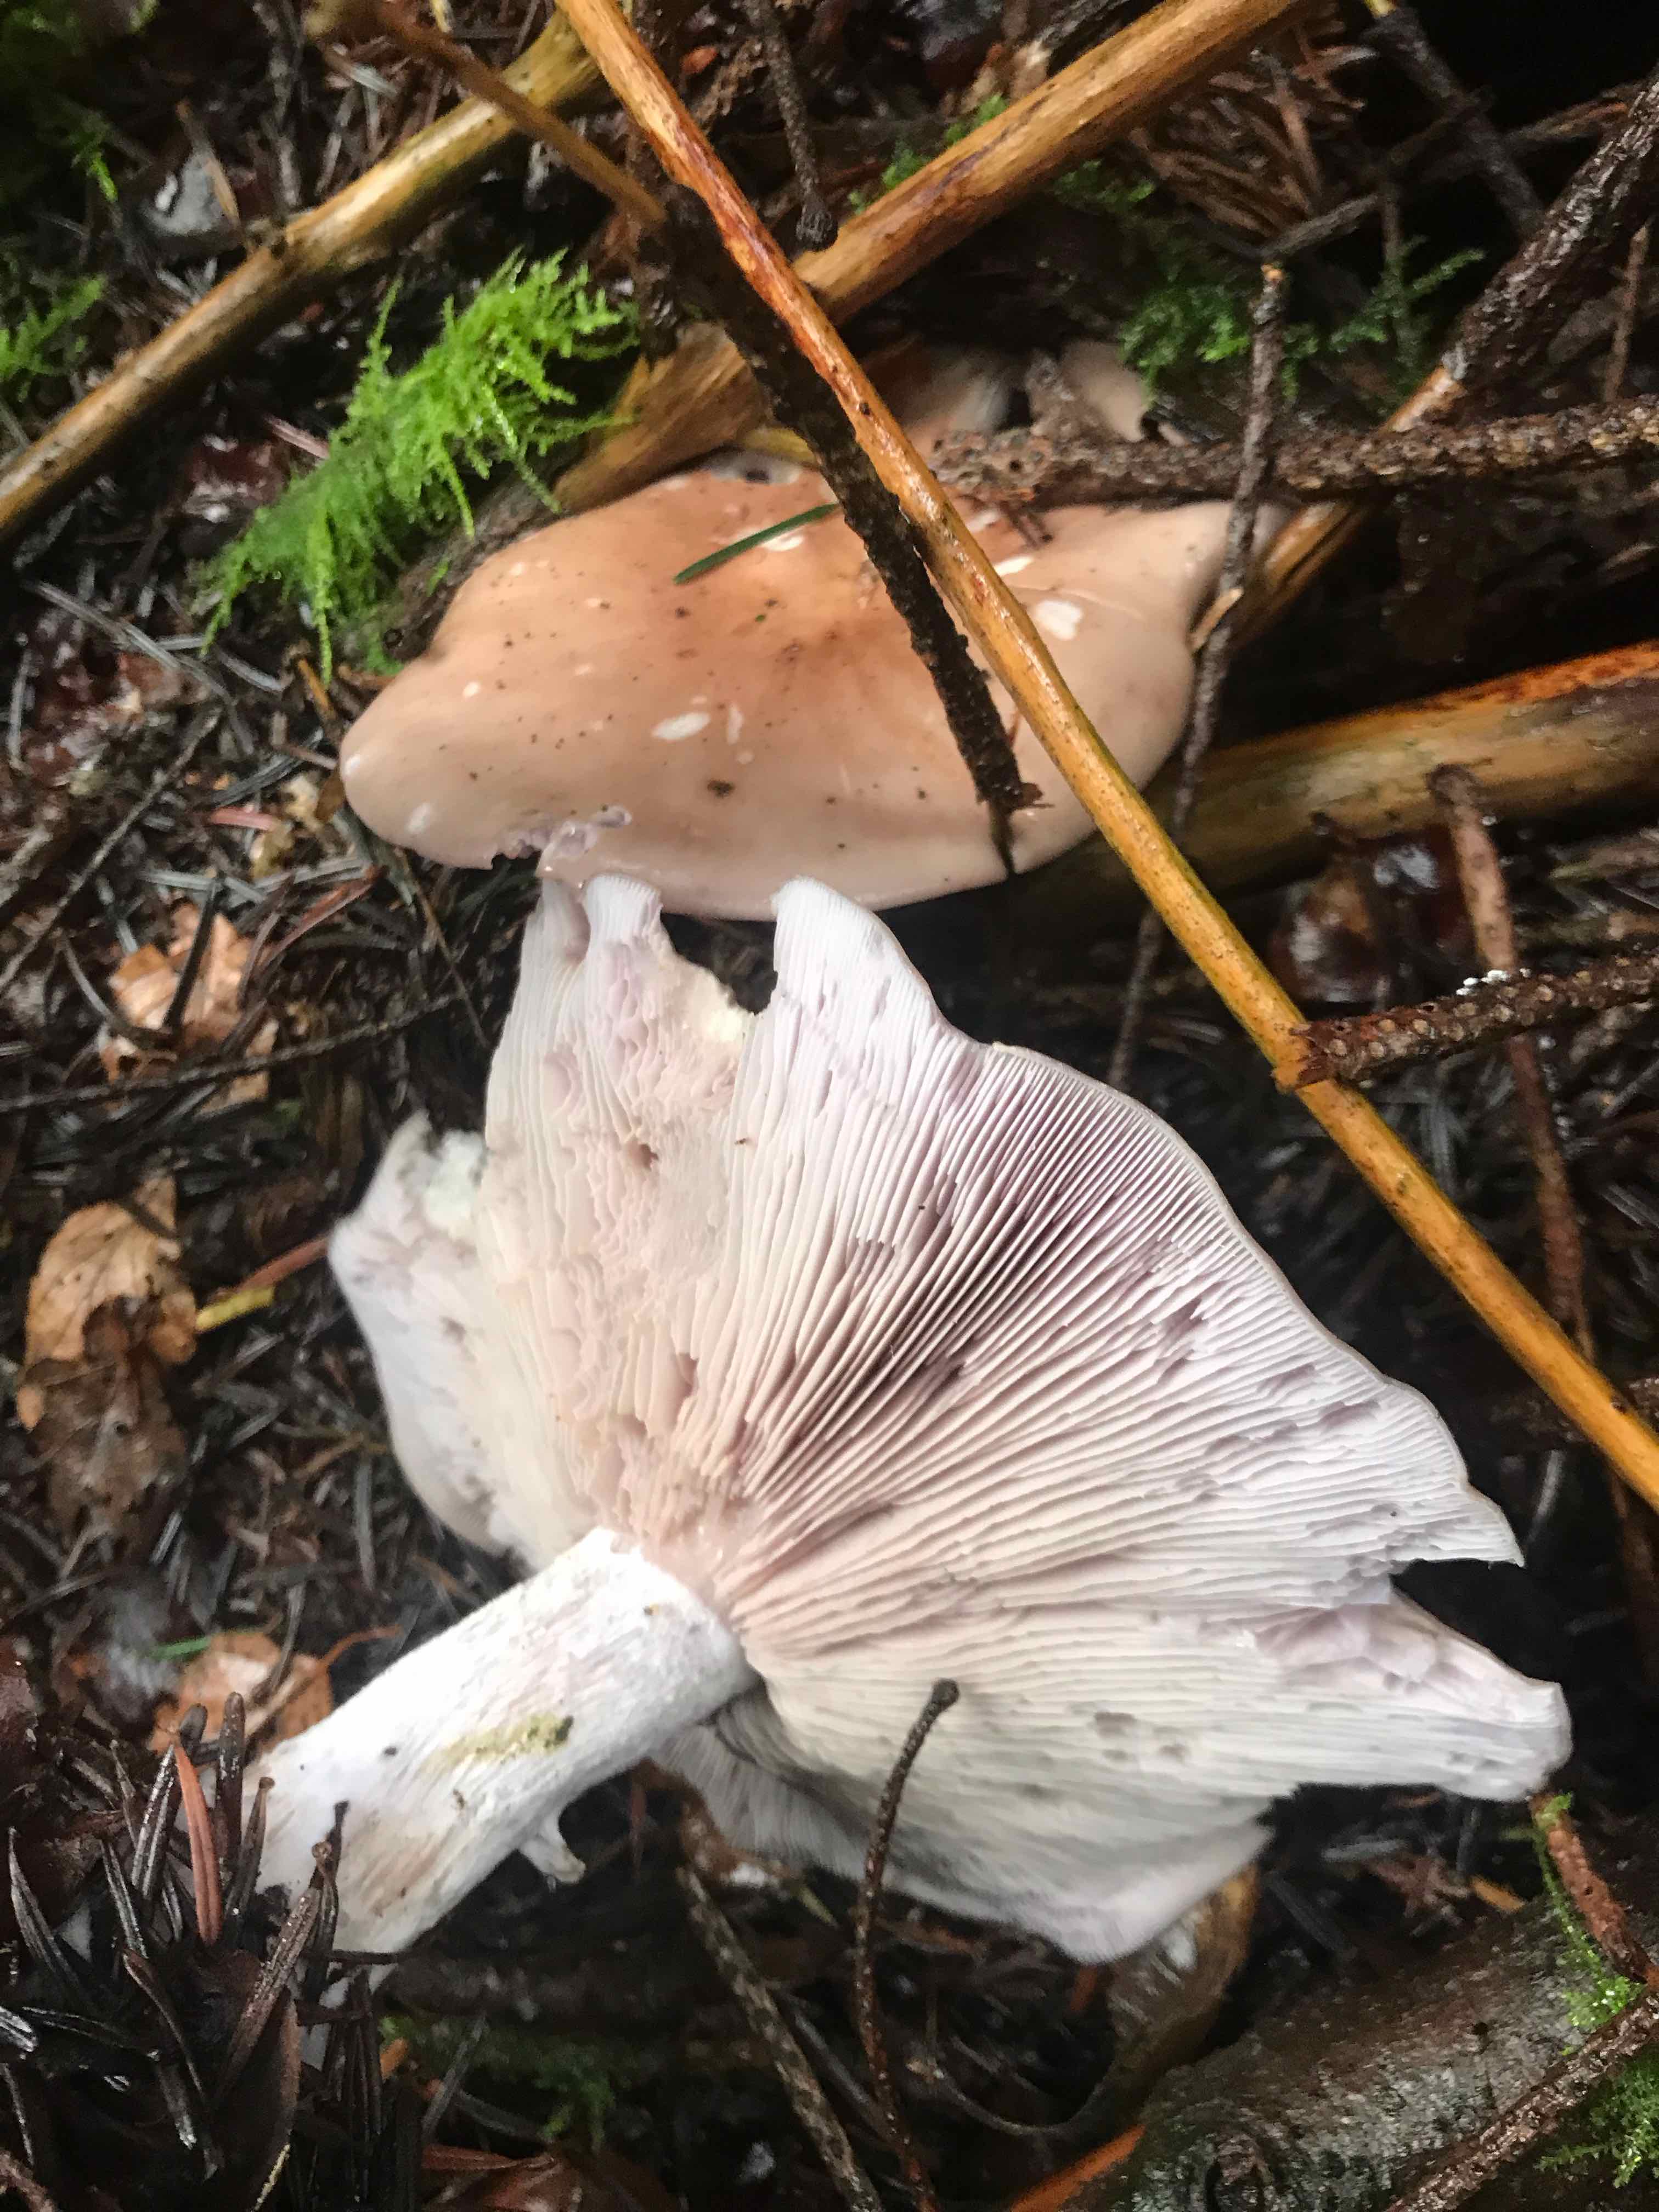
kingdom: Fungi
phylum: Basidiomycota
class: Agaricomycetes
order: Agaricales
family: Tricholomataceae
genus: Lepista
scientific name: Lepista
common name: hekseringshat
